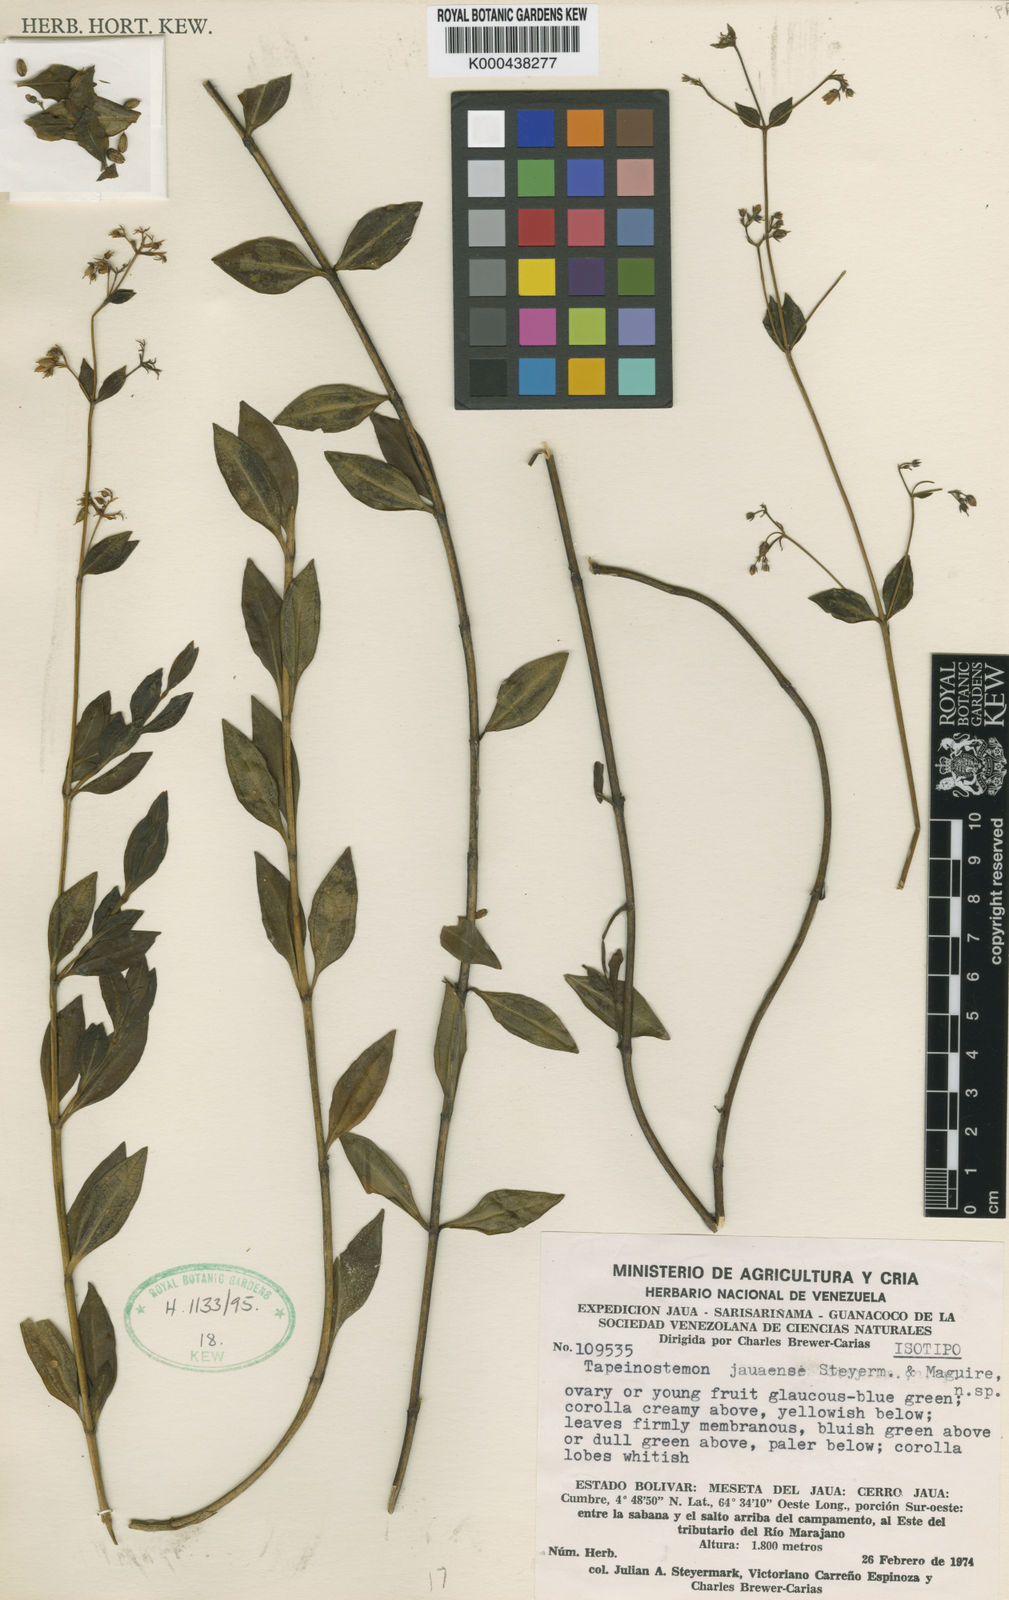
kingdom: Plantae
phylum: Tracheophyta
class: Magnoliopsida
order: Gentianales
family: Gentianaceae
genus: Tapeinostemon
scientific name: Tapeinostemon jauaensis
